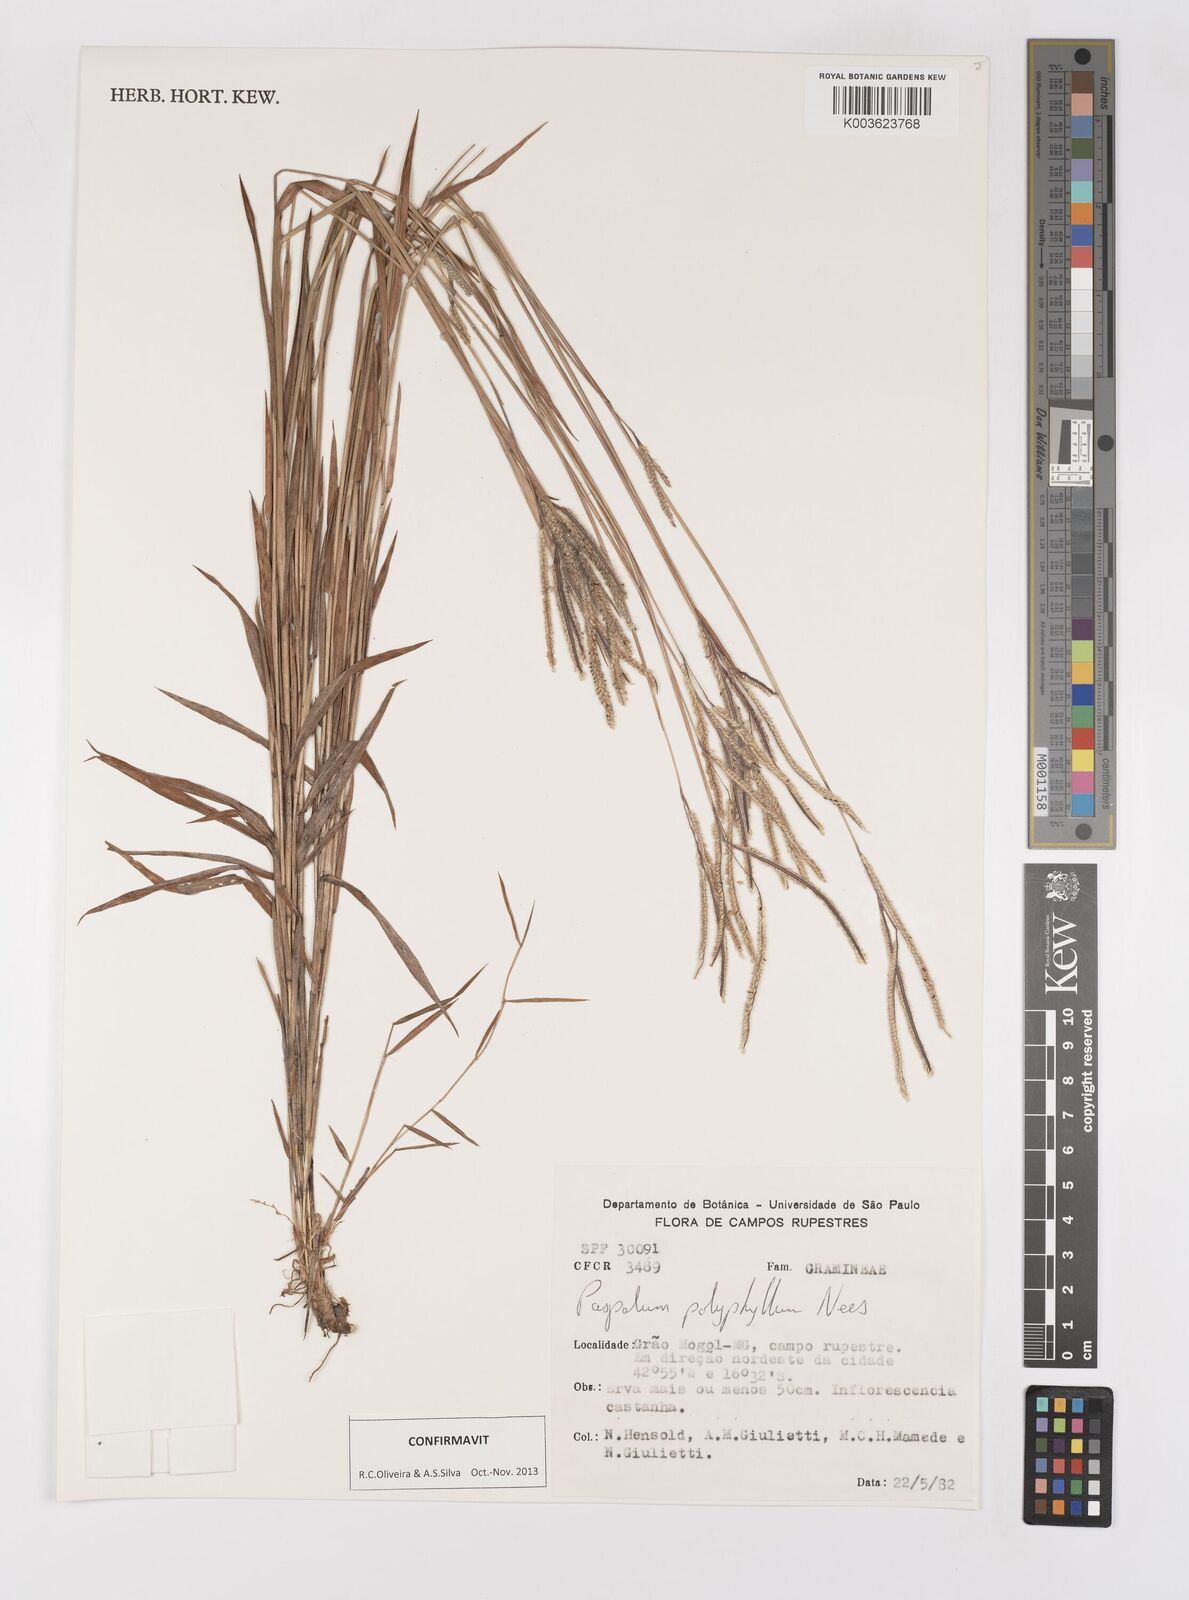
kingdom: Plantae
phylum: Tracheophyta
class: Liliopsida
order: Poales
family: Poaceae
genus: Paspalum
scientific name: Paspalum polyphyllum
